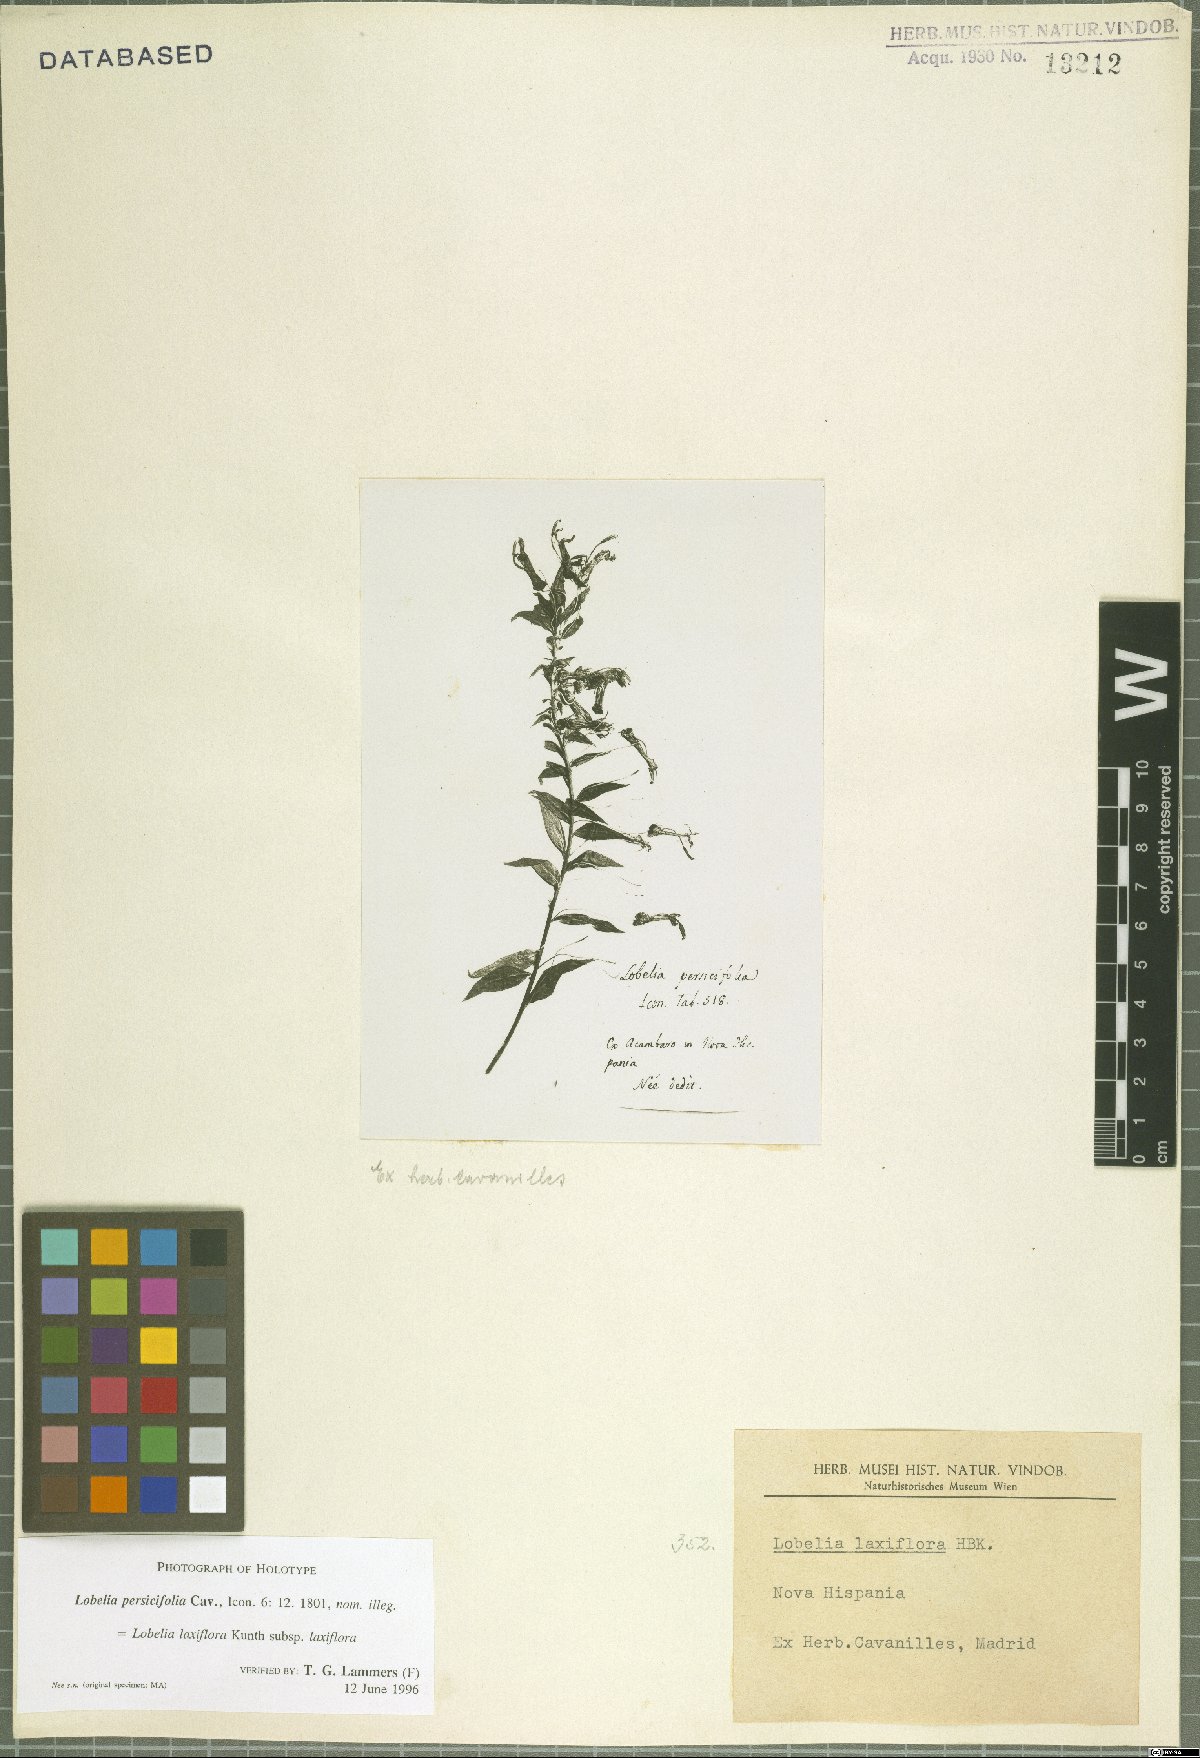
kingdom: Plantae
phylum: Tracheophyta
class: Magnoliopsida
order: Asterales
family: Campanulaceae
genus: Lobelia
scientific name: Lobelia laxiflora
